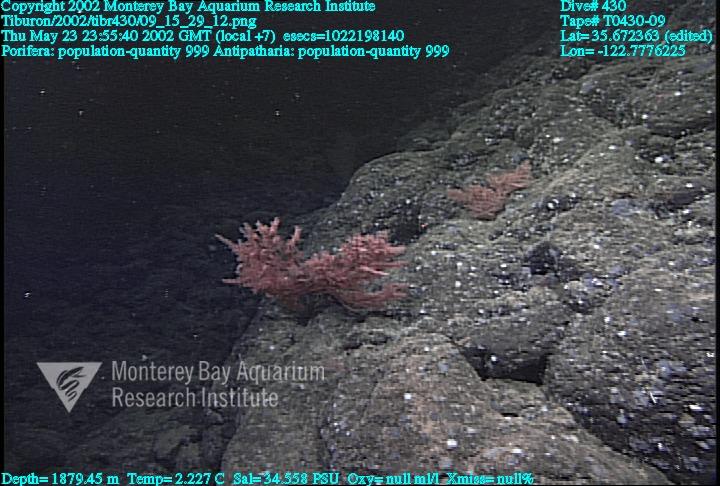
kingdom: Animalia
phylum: Porifera
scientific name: Porifera
